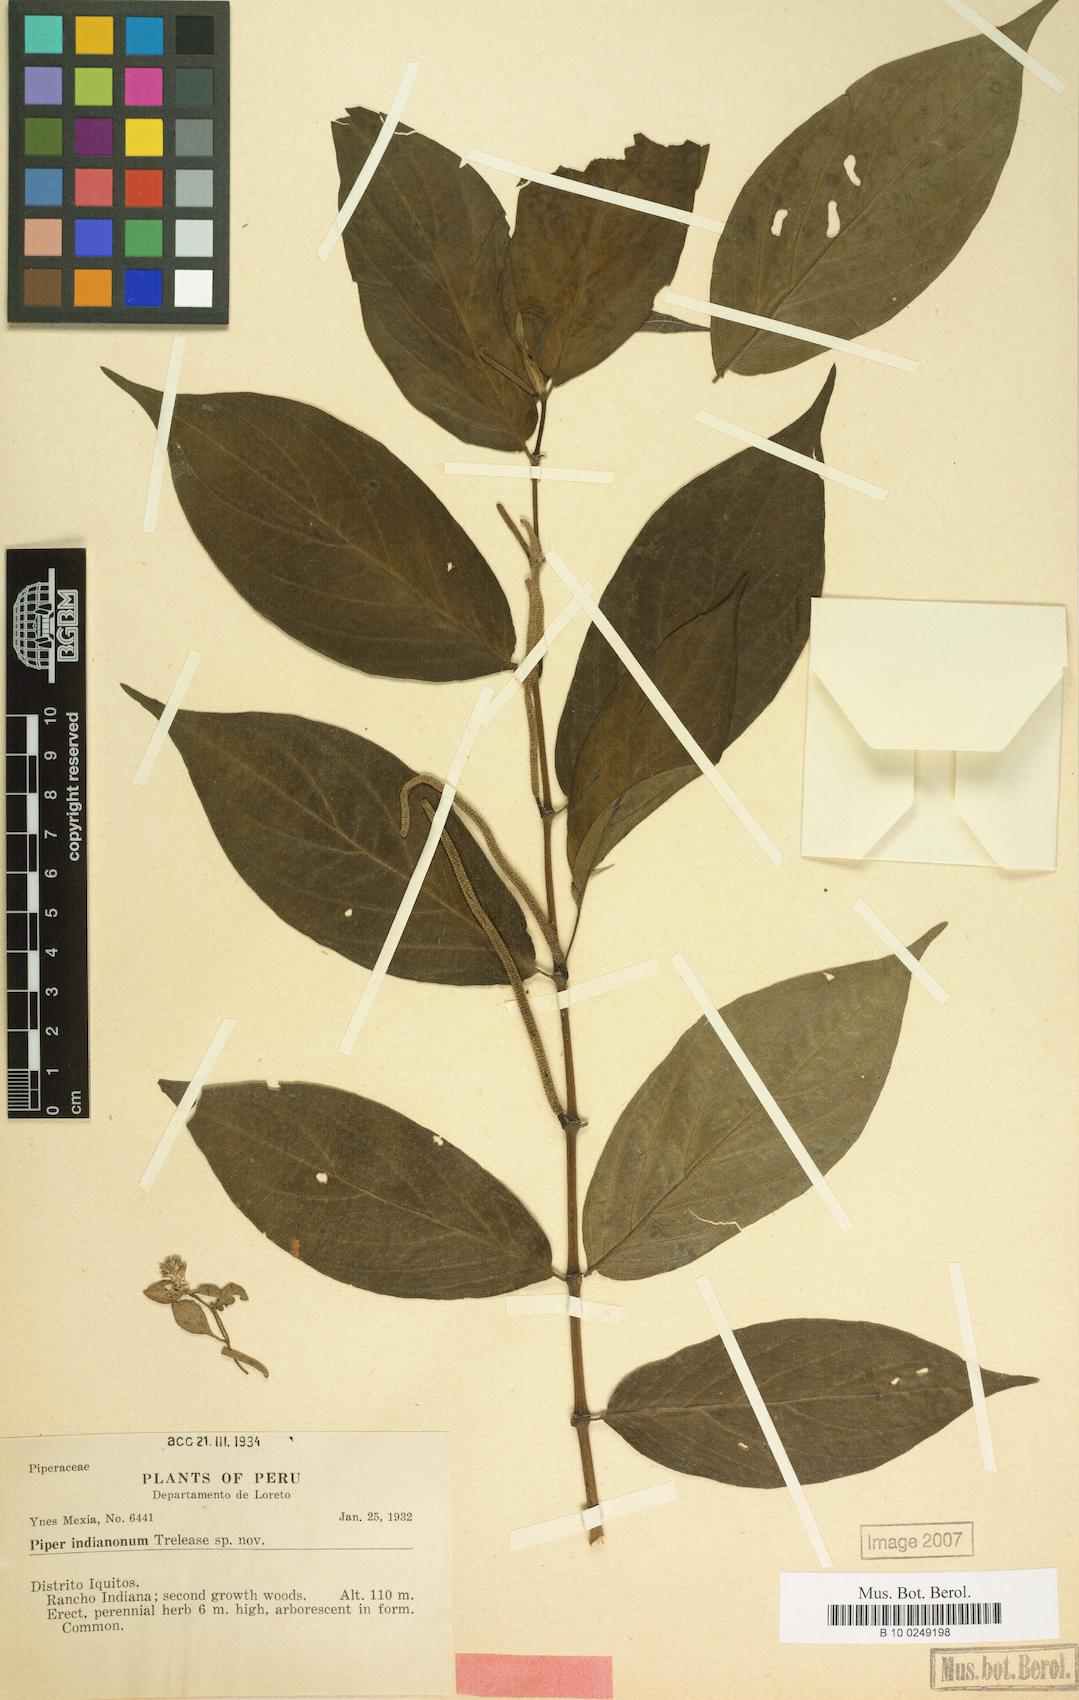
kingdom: Plantae
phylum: Tracheophyta
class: Magnoliopsida
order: Piperales
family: Piperaceae
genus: Piper
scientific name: Piper indianonum
